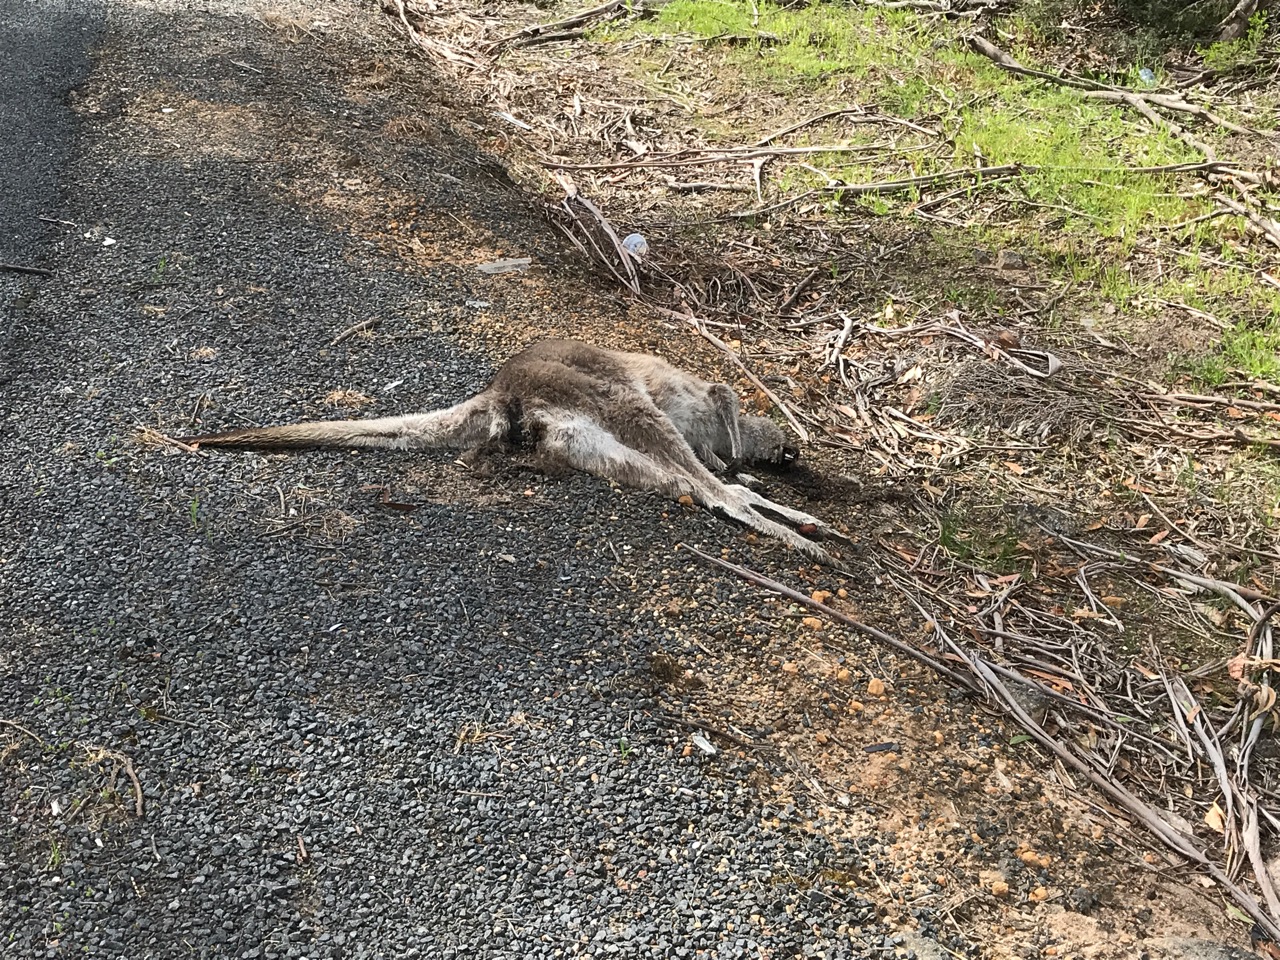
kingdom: Animalia
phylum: Chordata
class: Mammalia
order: Diprotodontia
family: Macropodidae
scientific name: Macropodidae
